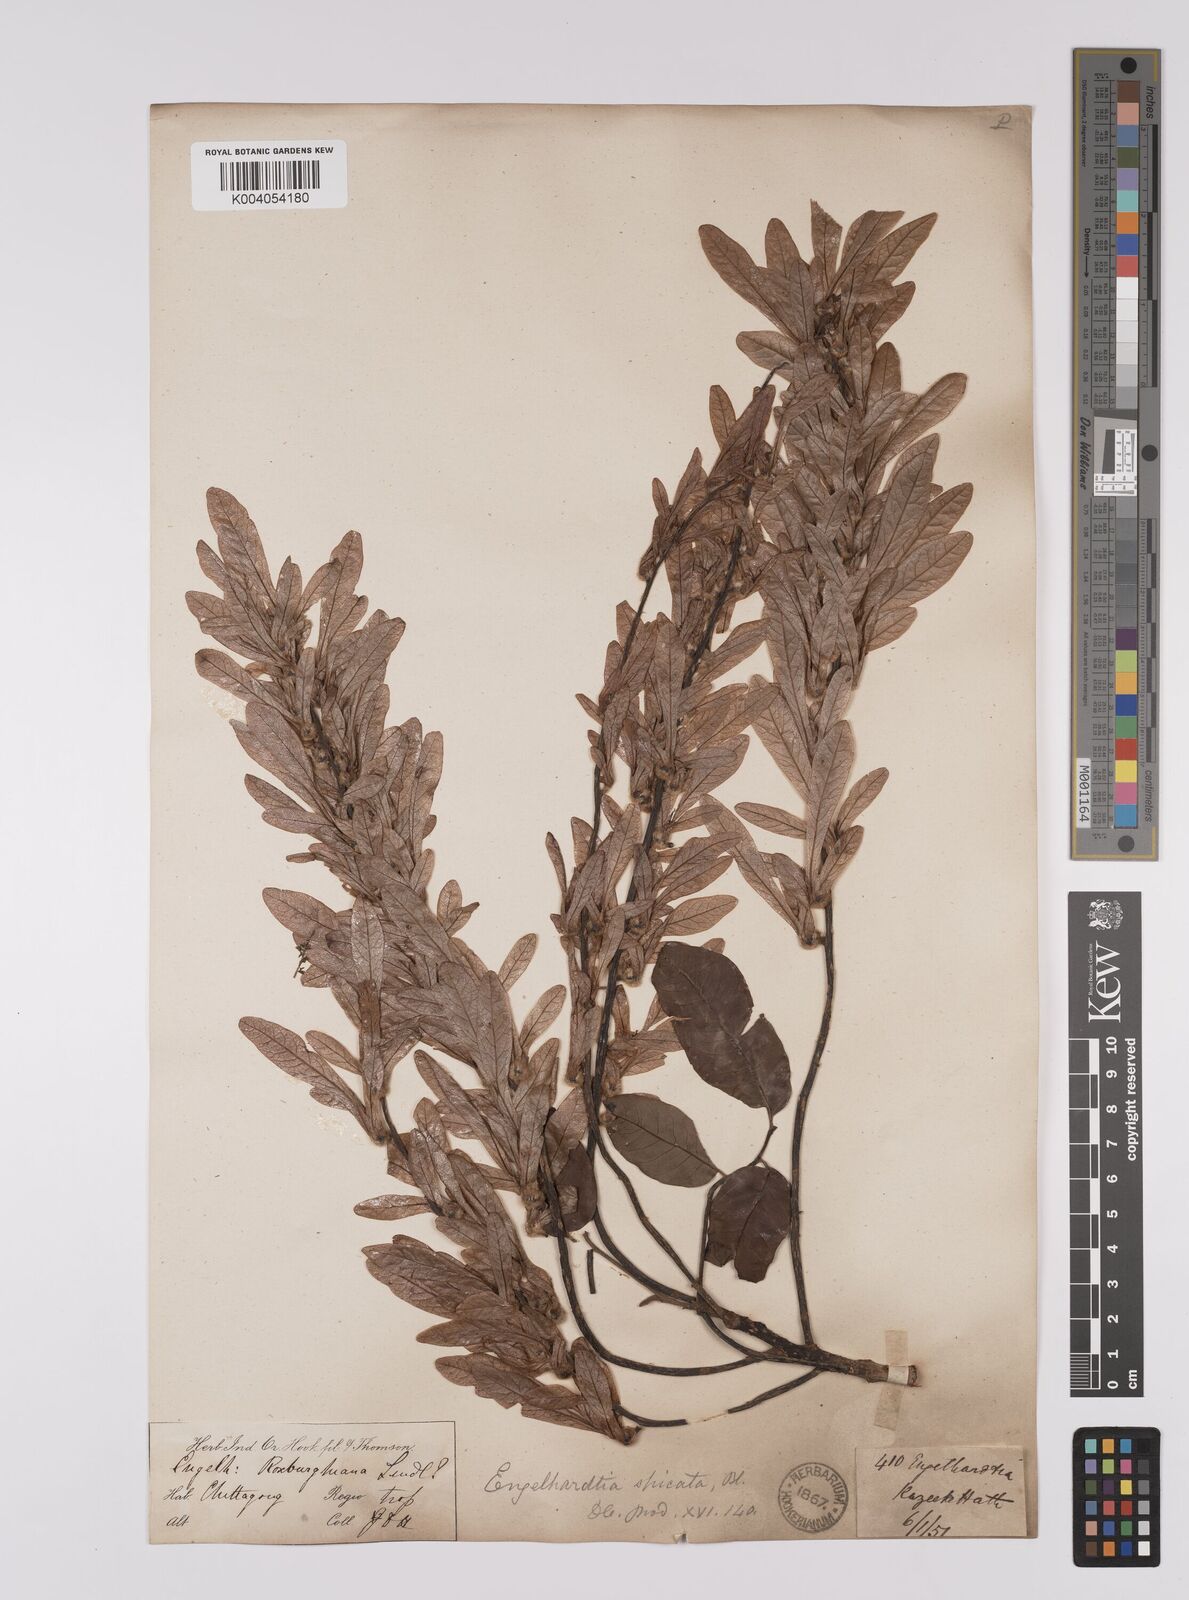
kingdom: Plantae
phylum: Tracheophyta
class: Magnoliopsida
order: Fagales
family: Juglandaceae
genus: Engelhardia
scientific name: Engelhardia spicata
